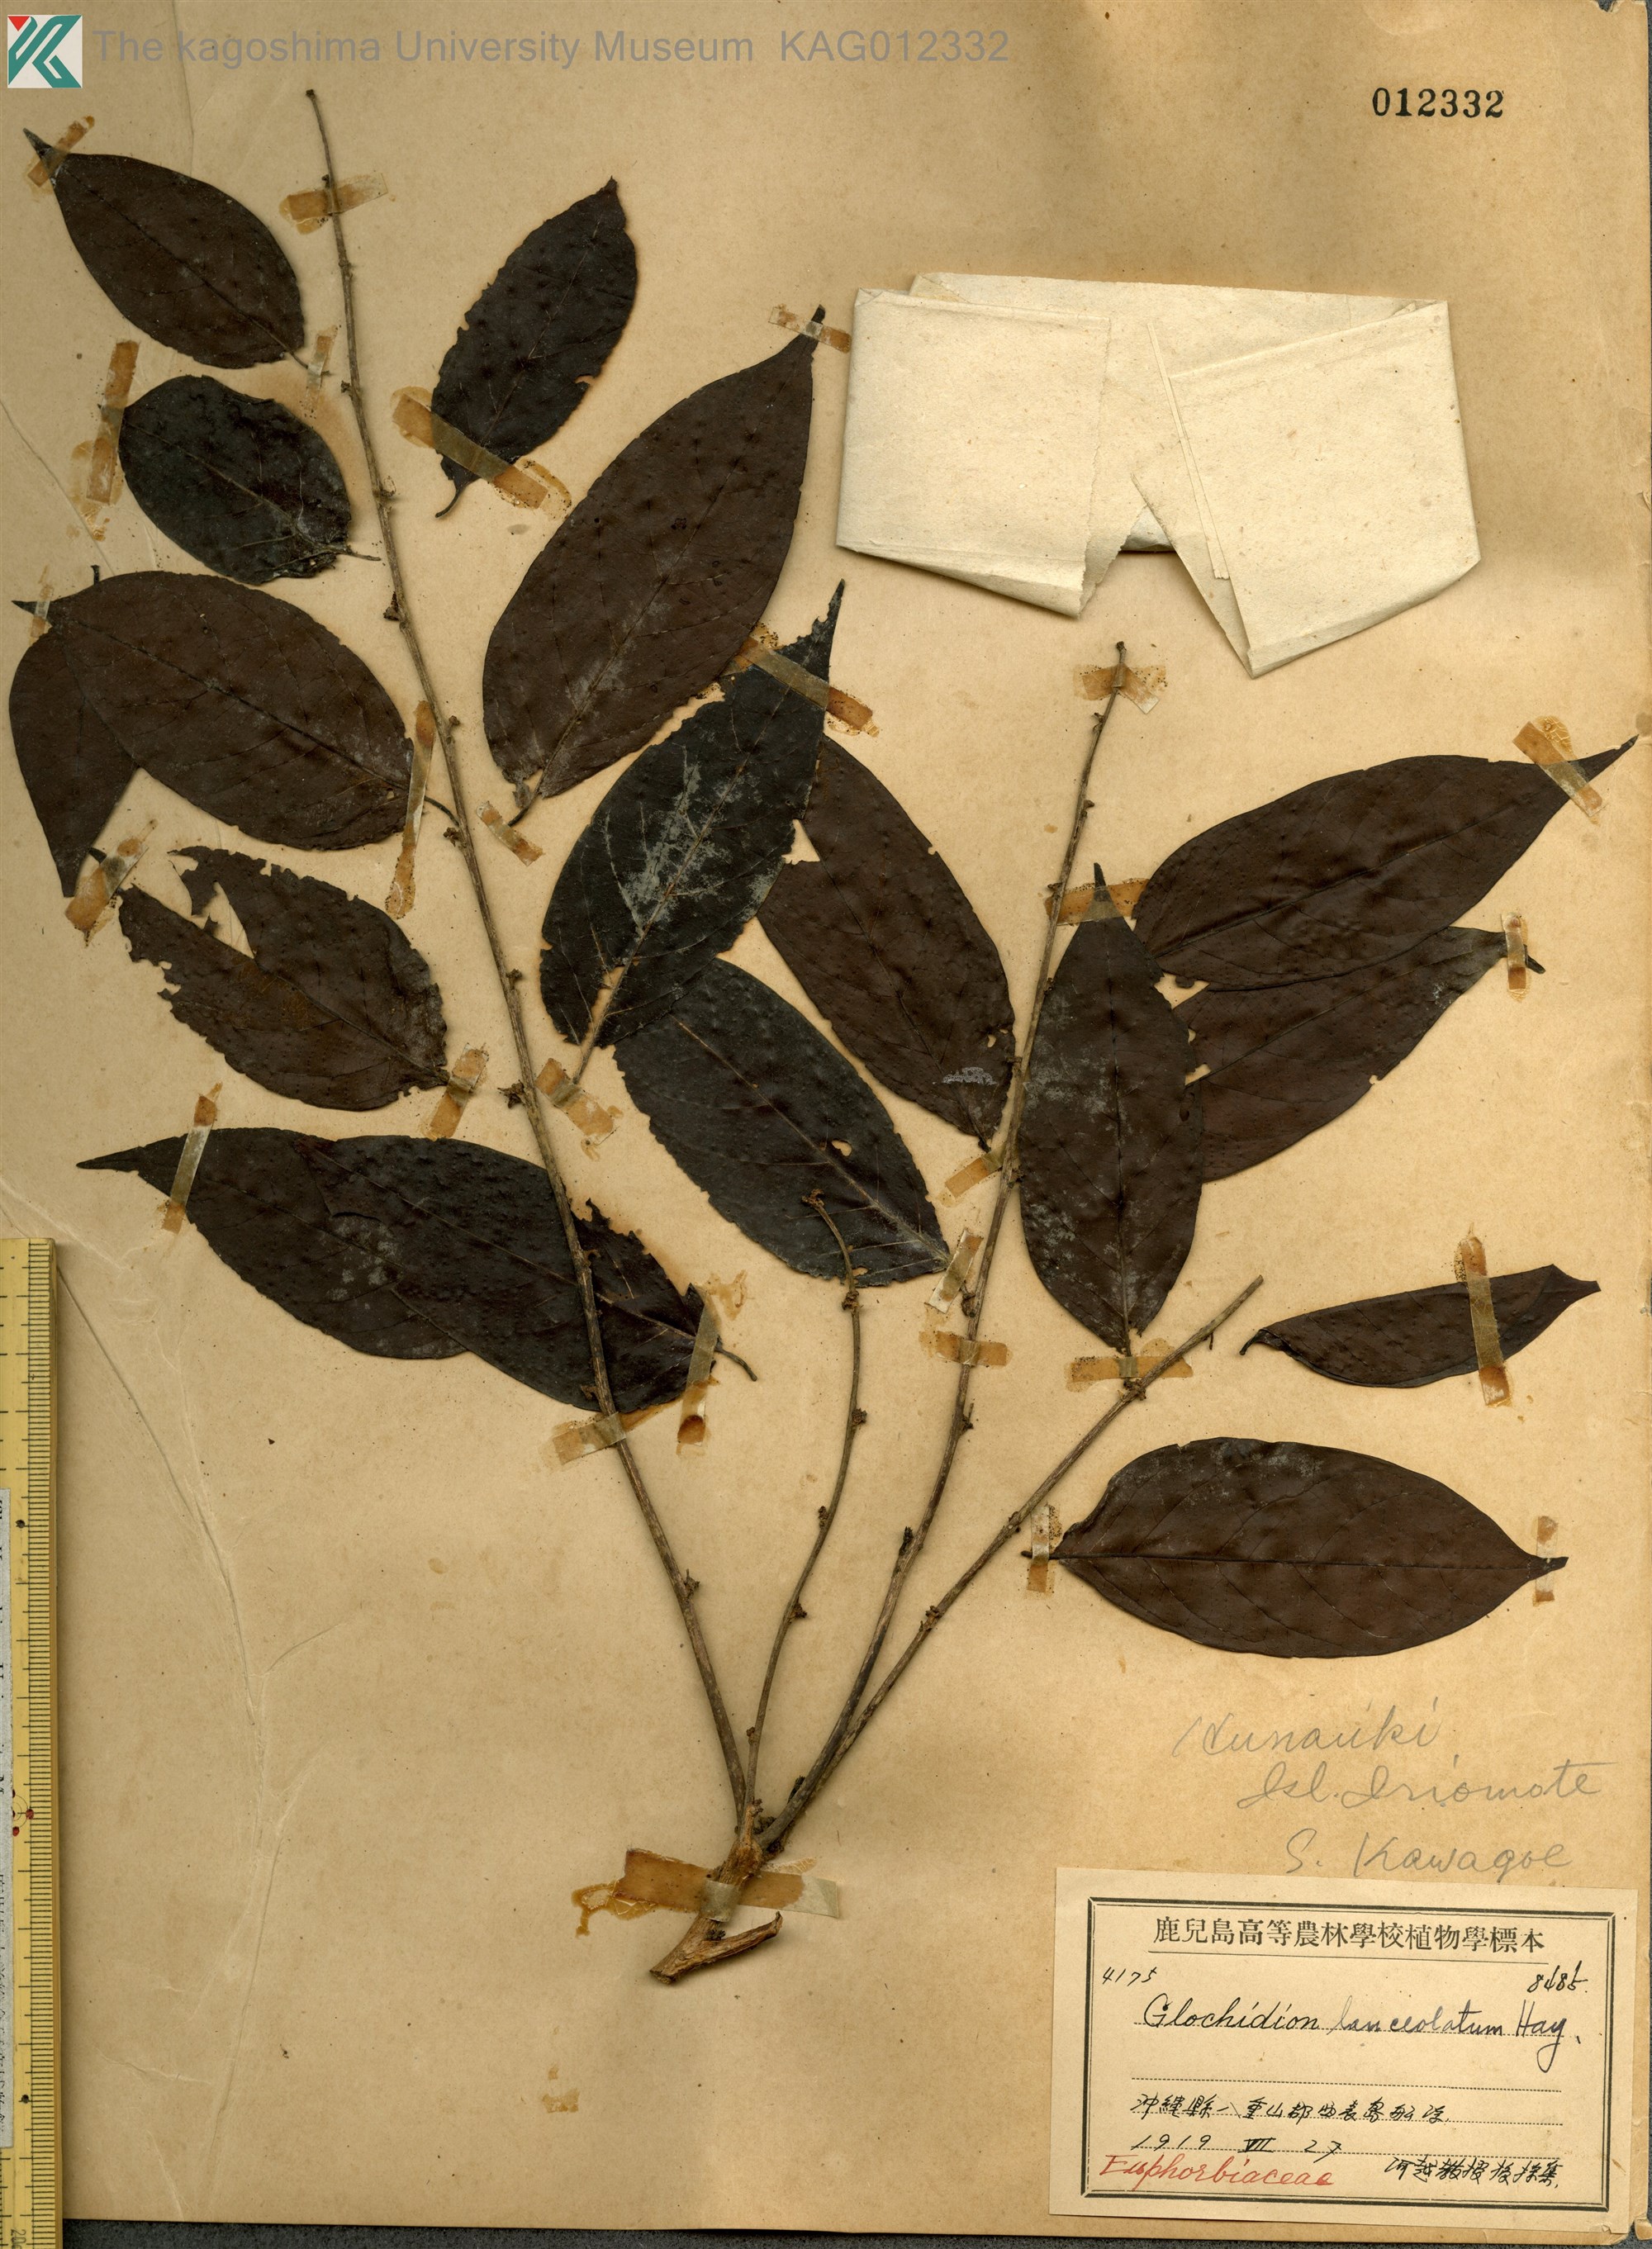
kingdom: Plantae
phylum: Tracheophyta
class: Magnoliopsida
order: Malpighiales
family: Phyllanthaceae
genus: Glochidion
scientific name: Glochidion lanceolatum
